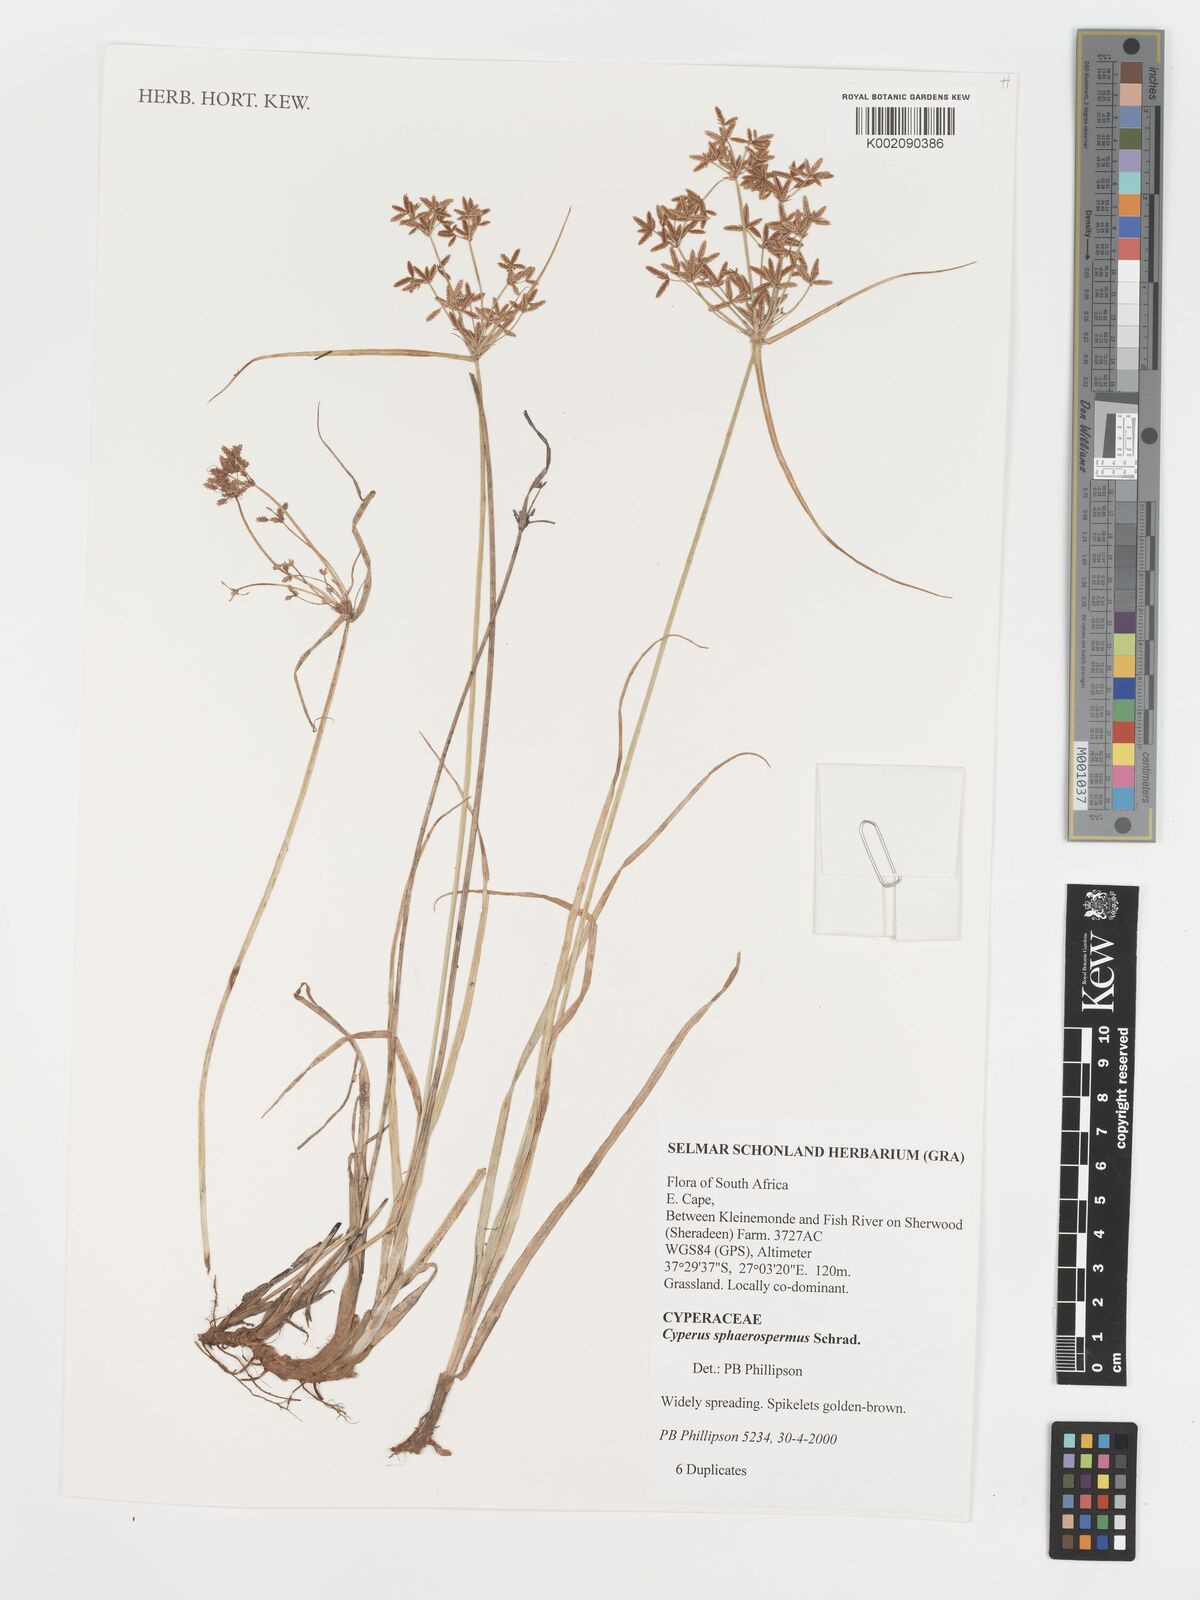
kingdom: Plantae
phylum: Tracheophyta
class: Liliopsida
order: Poales
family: Cyperaceae
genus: Cyperus
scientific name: Cyperus sphaerospermus
